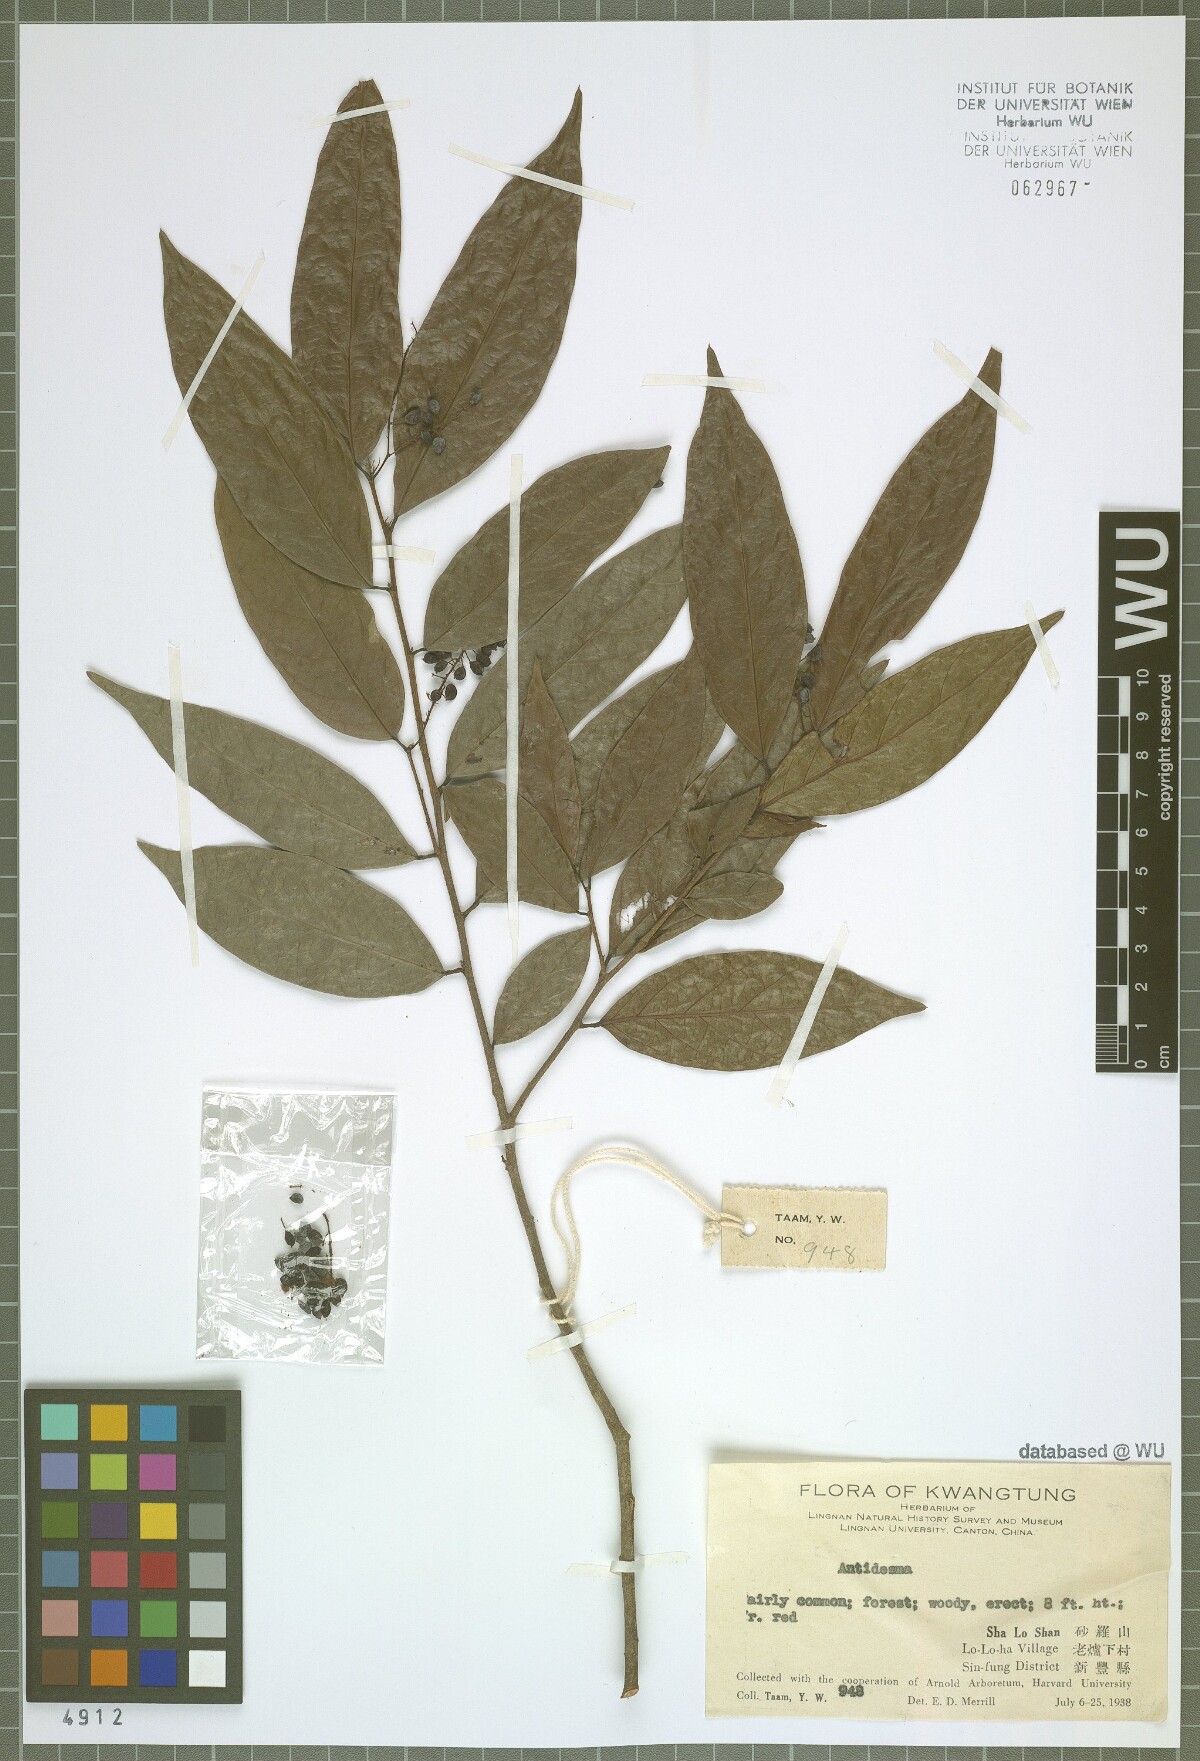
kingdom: Plantae
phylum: Tracheophyta
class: Magnoliopsida
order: Malpighiales
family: Phyllanthaceae
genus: Antidesma
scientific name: Antidesma
